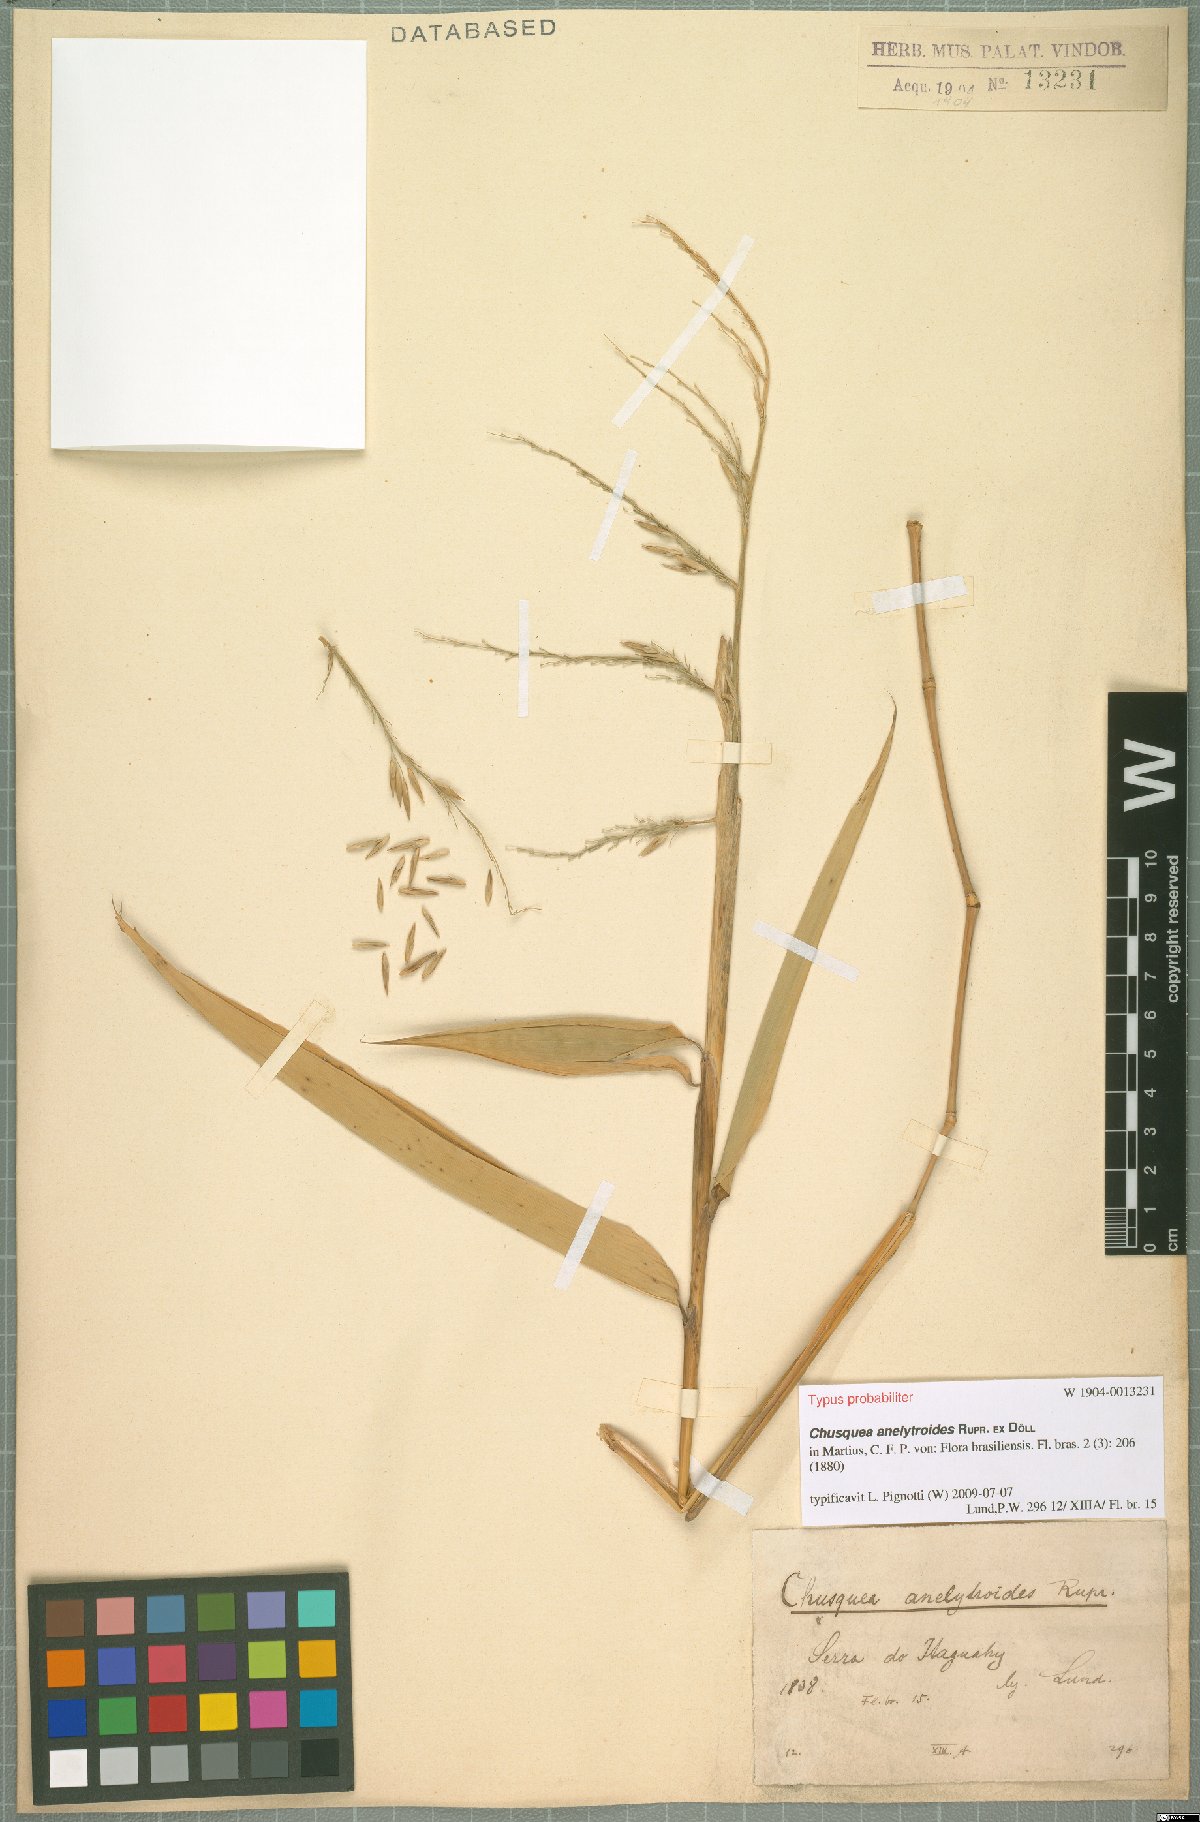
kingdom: Plantae
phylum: Tracheophyta
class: Liliopsida
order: Poales
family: Poaceae
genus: Chusquea
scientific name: Chusquea anelythroides
